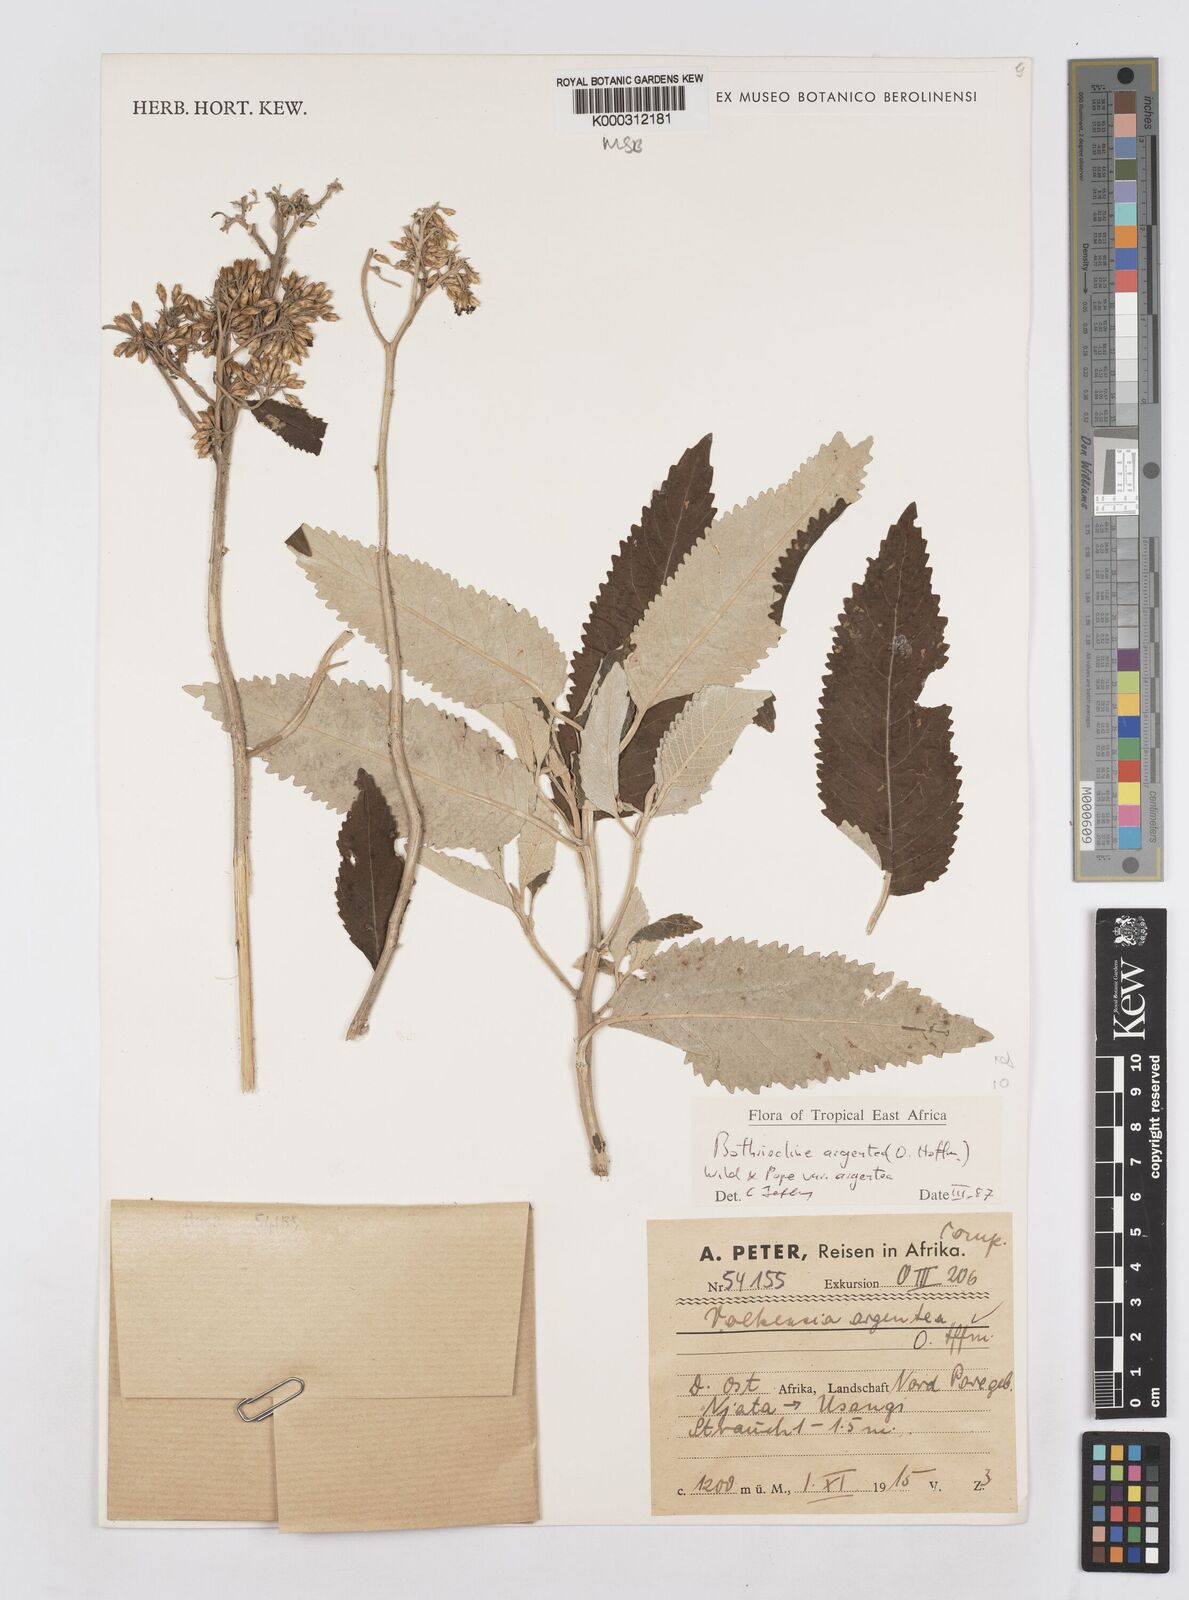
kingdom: Plantae
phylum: Tracheophyta
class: Magnoliopsida
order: Asterales
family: Asteraceae
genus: Bothriocline
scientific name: Bothriocline argentea
